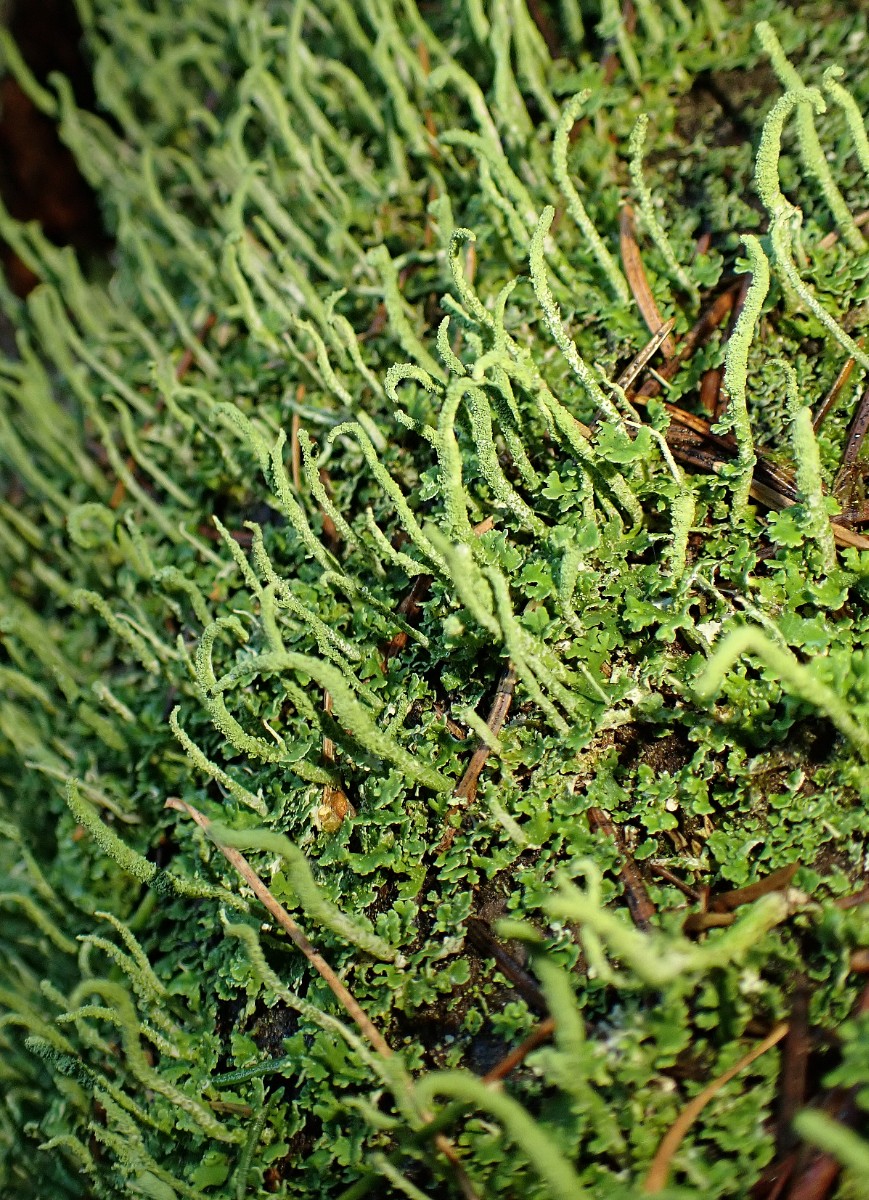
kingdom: Fungi
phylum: Ascomycota
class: Lecanoromycetes
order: Lecanorales
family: Cladoniaceae
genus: Cladonia
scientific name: Cladonia coniocraea
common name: træfods-bægerlav
